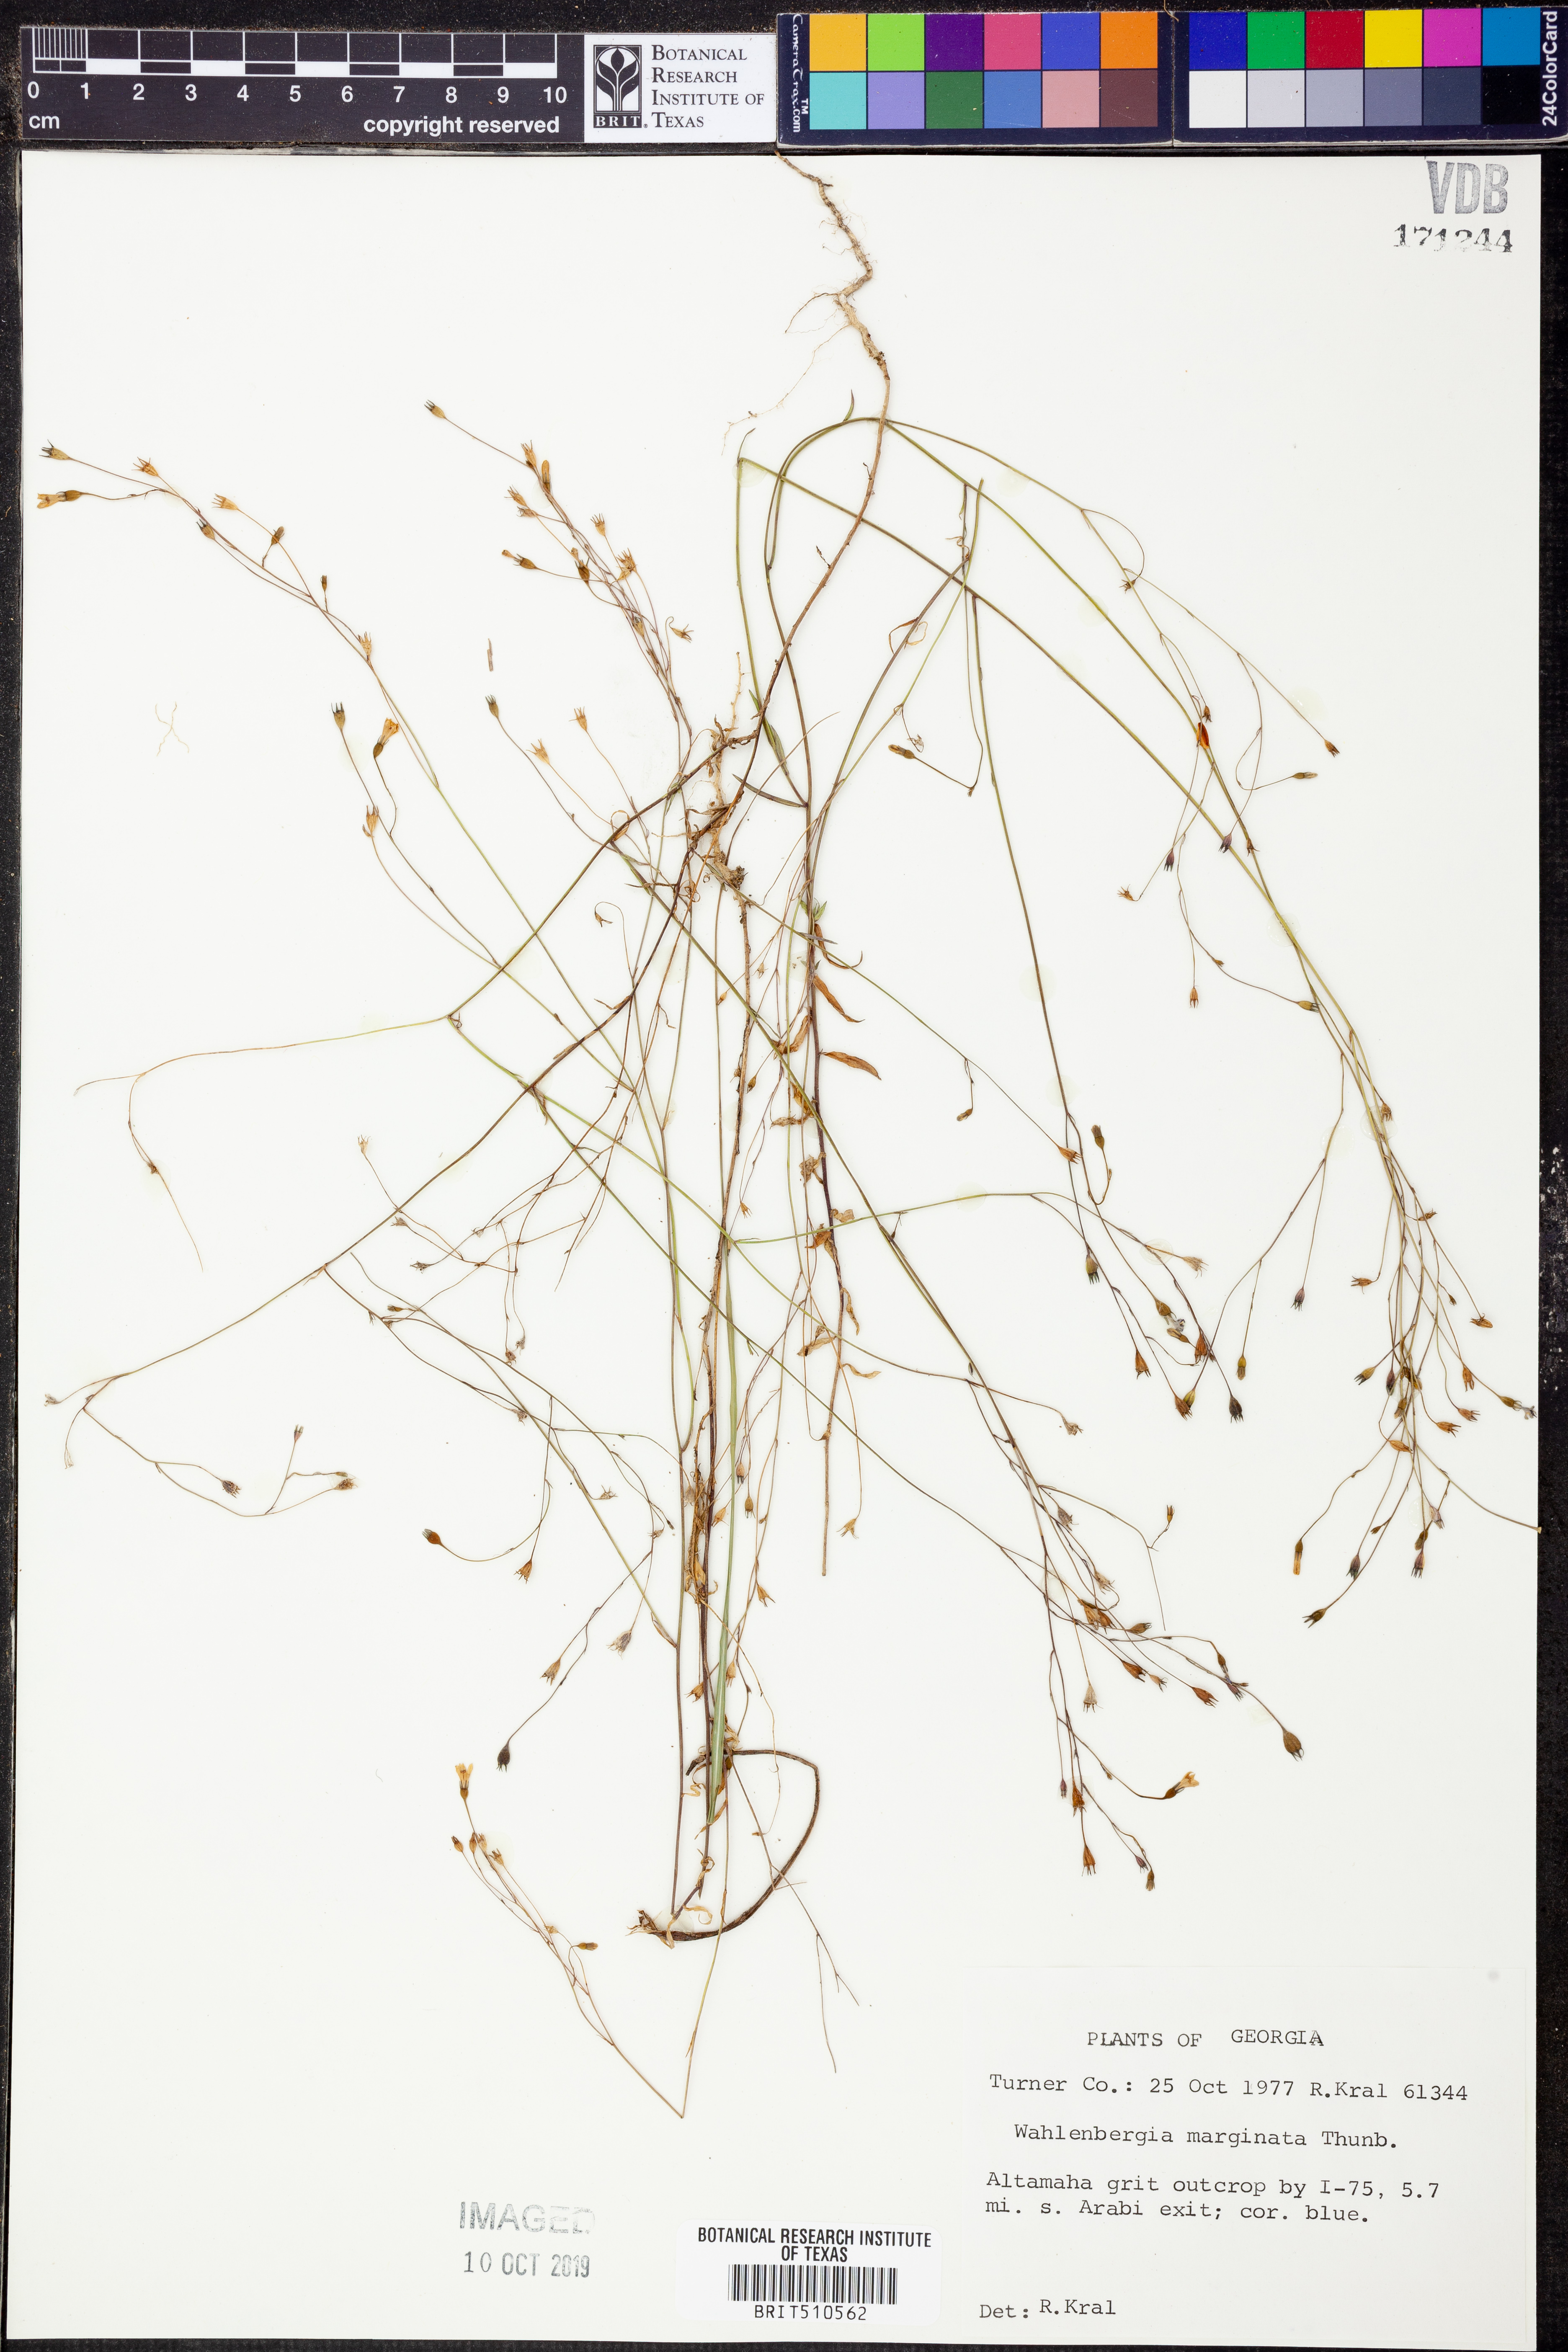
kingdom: Plantae
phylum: Tracheophyta
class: Magnoliopsida
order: Asterales
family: Campanulaceae
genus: Wahlenbergia
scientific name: Wahlenbergia marginata
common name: Southern rockbell
